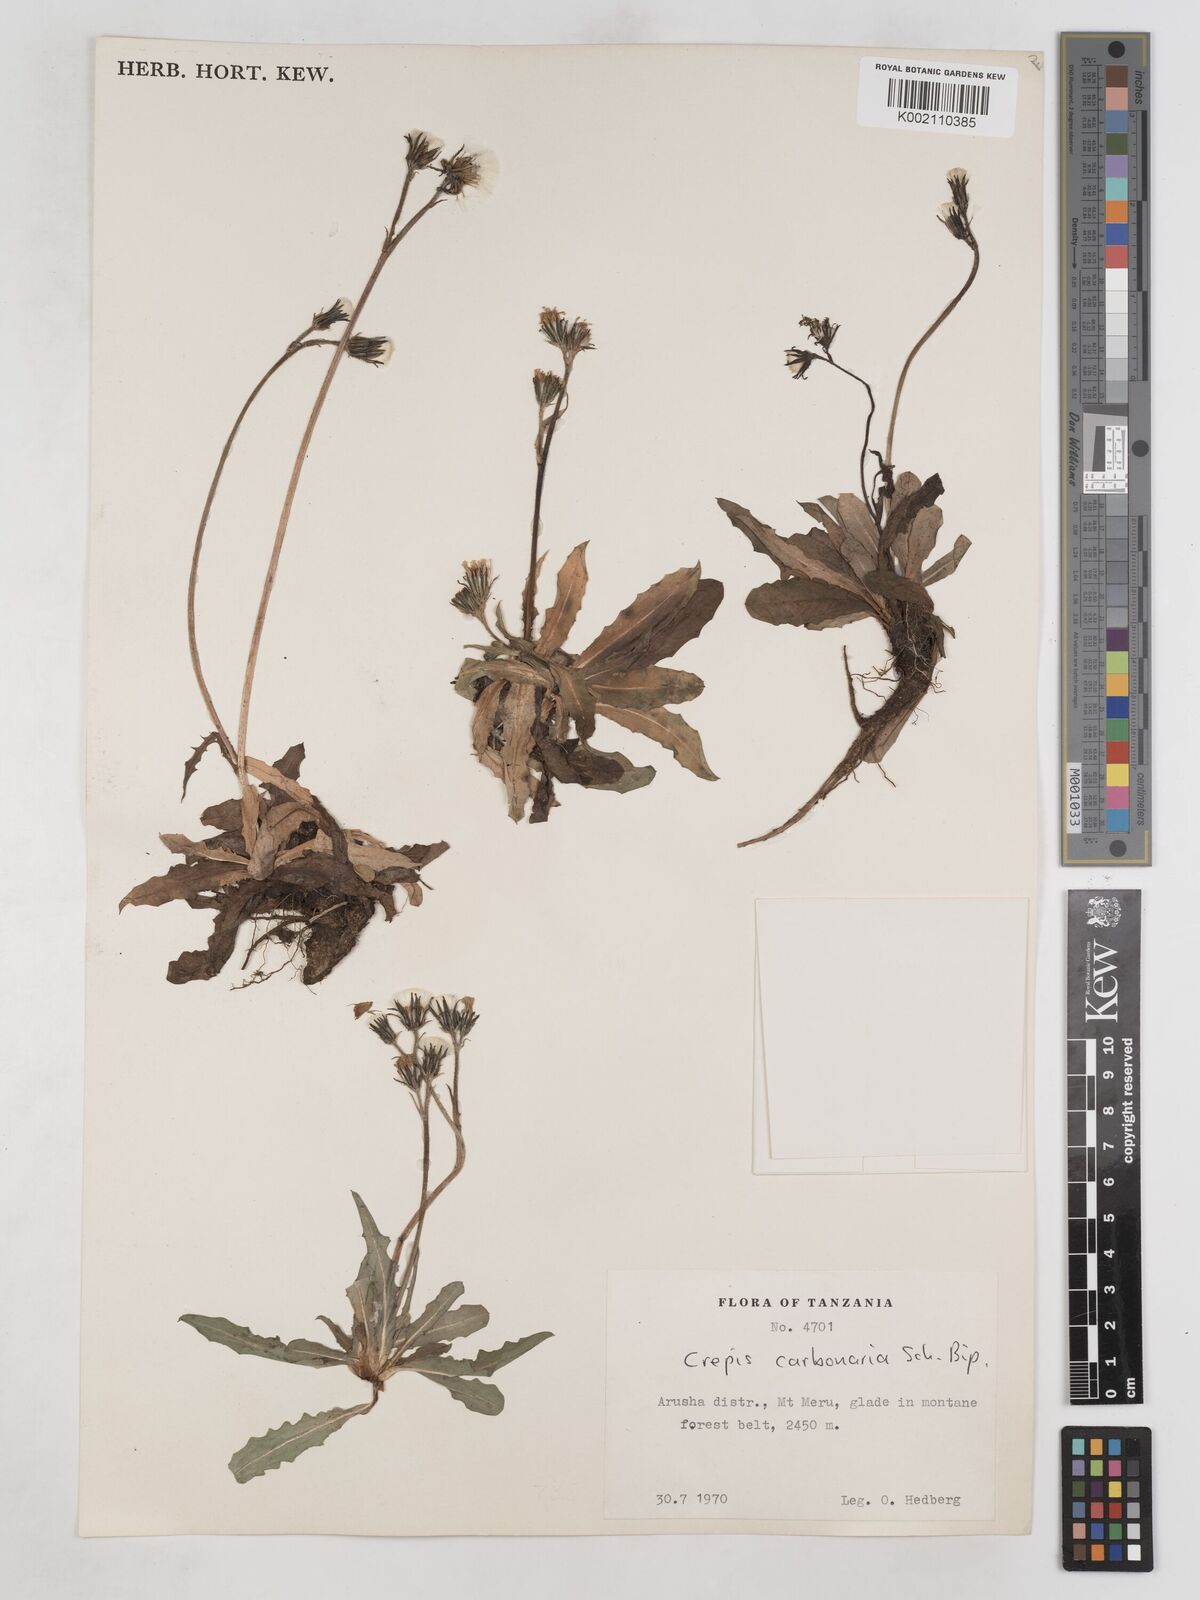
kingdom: Plantae
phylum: Tracheophyta
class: Magnoliopsida
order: Asterales
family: Asteraceae
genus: Crepis
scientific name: Crepis carbonaria
